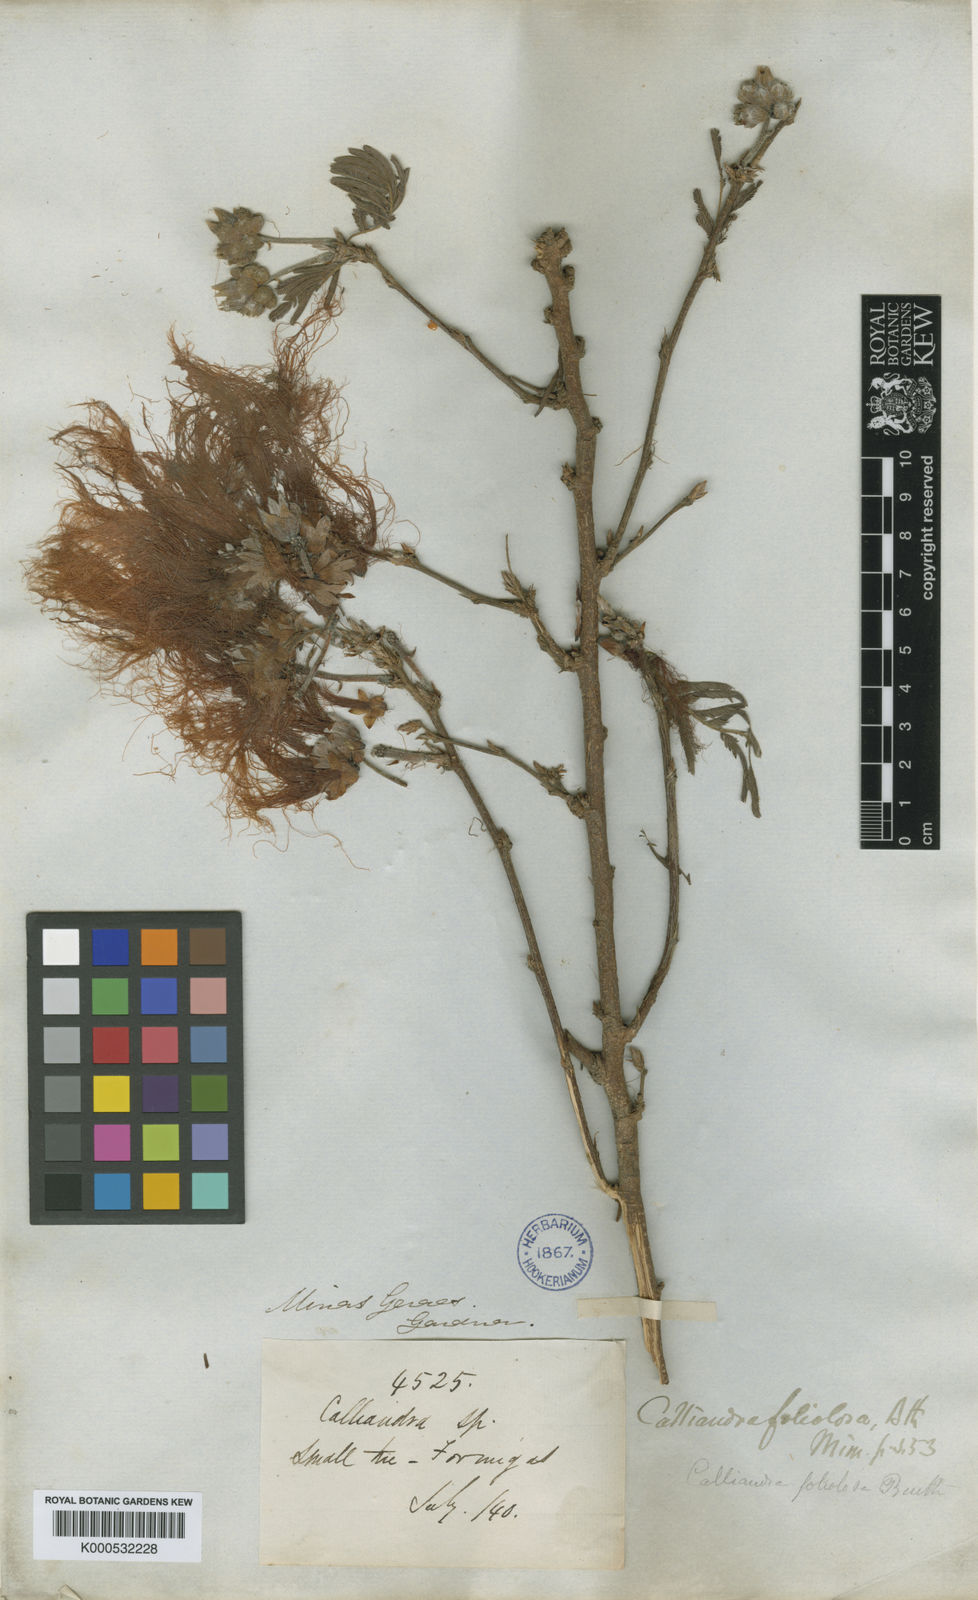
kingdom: Plantae
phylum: Tracheophyta
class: Magnoliopsida
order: Fabales
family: Fabaceae
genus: Calliandra
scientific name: Calliandra
